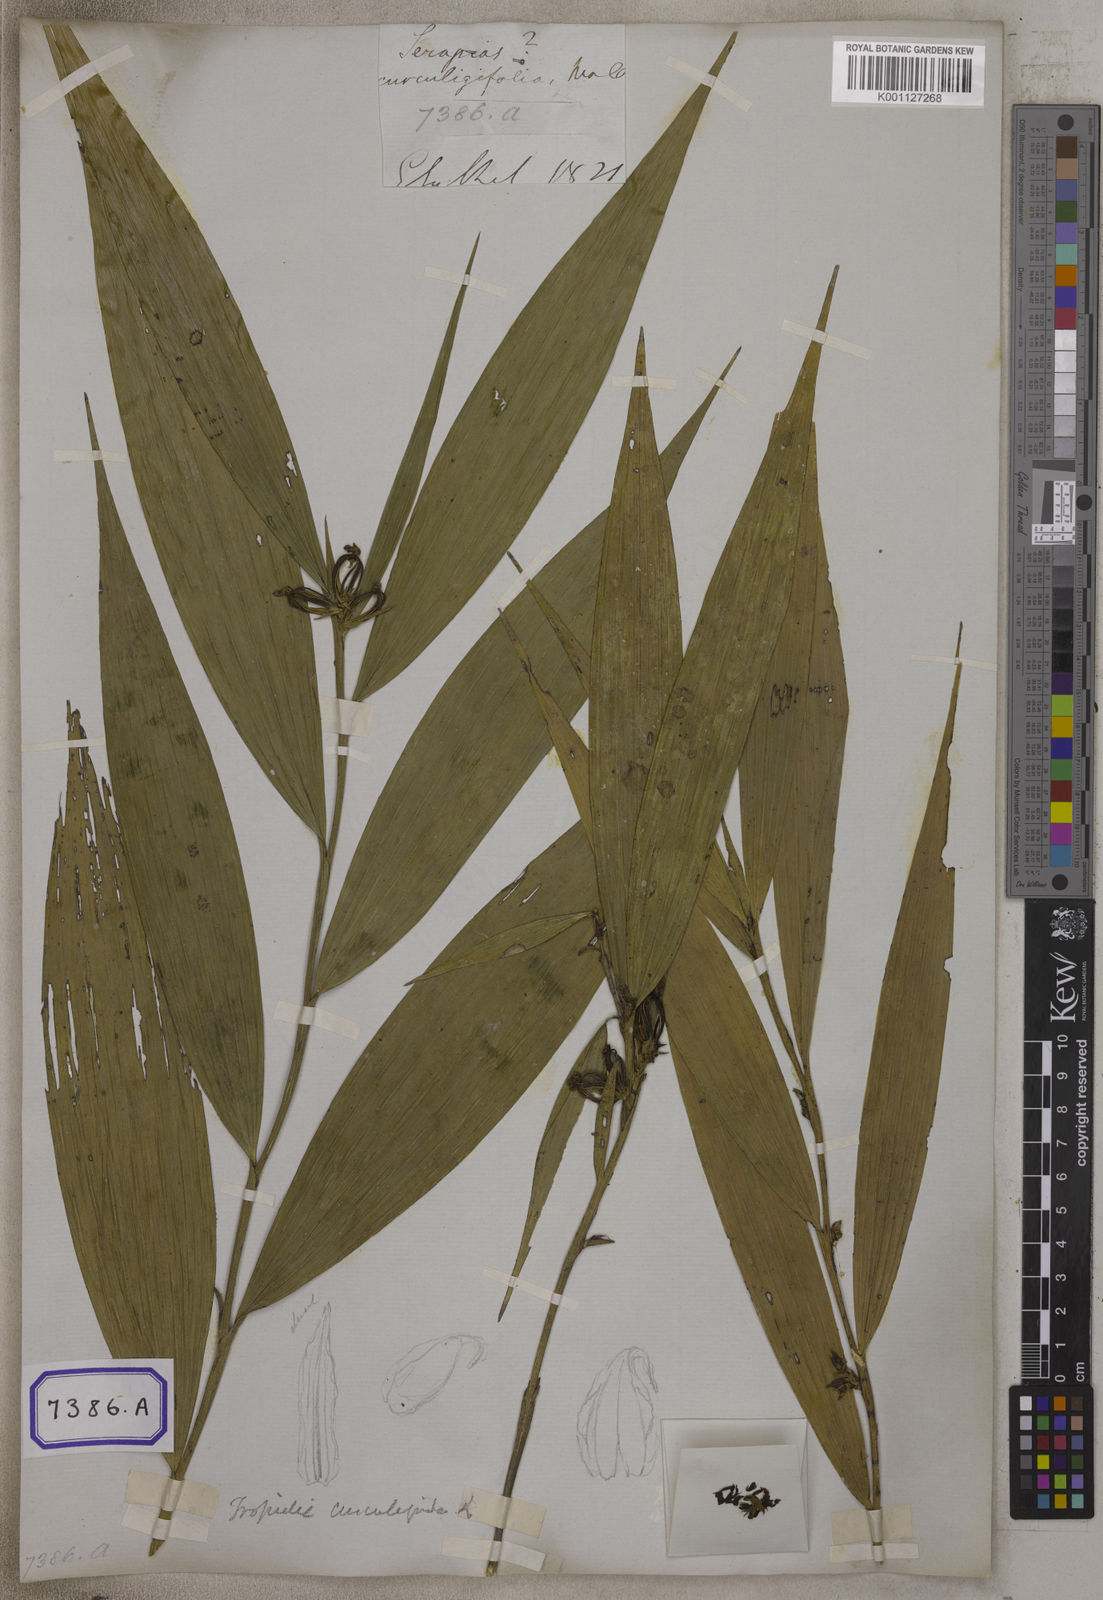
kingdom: Plantae
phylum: Tracheophyta
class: Liliopsida
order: Asparagales
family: Orchidaceae
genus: Tropidia
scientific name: Tropidia curculigoides
